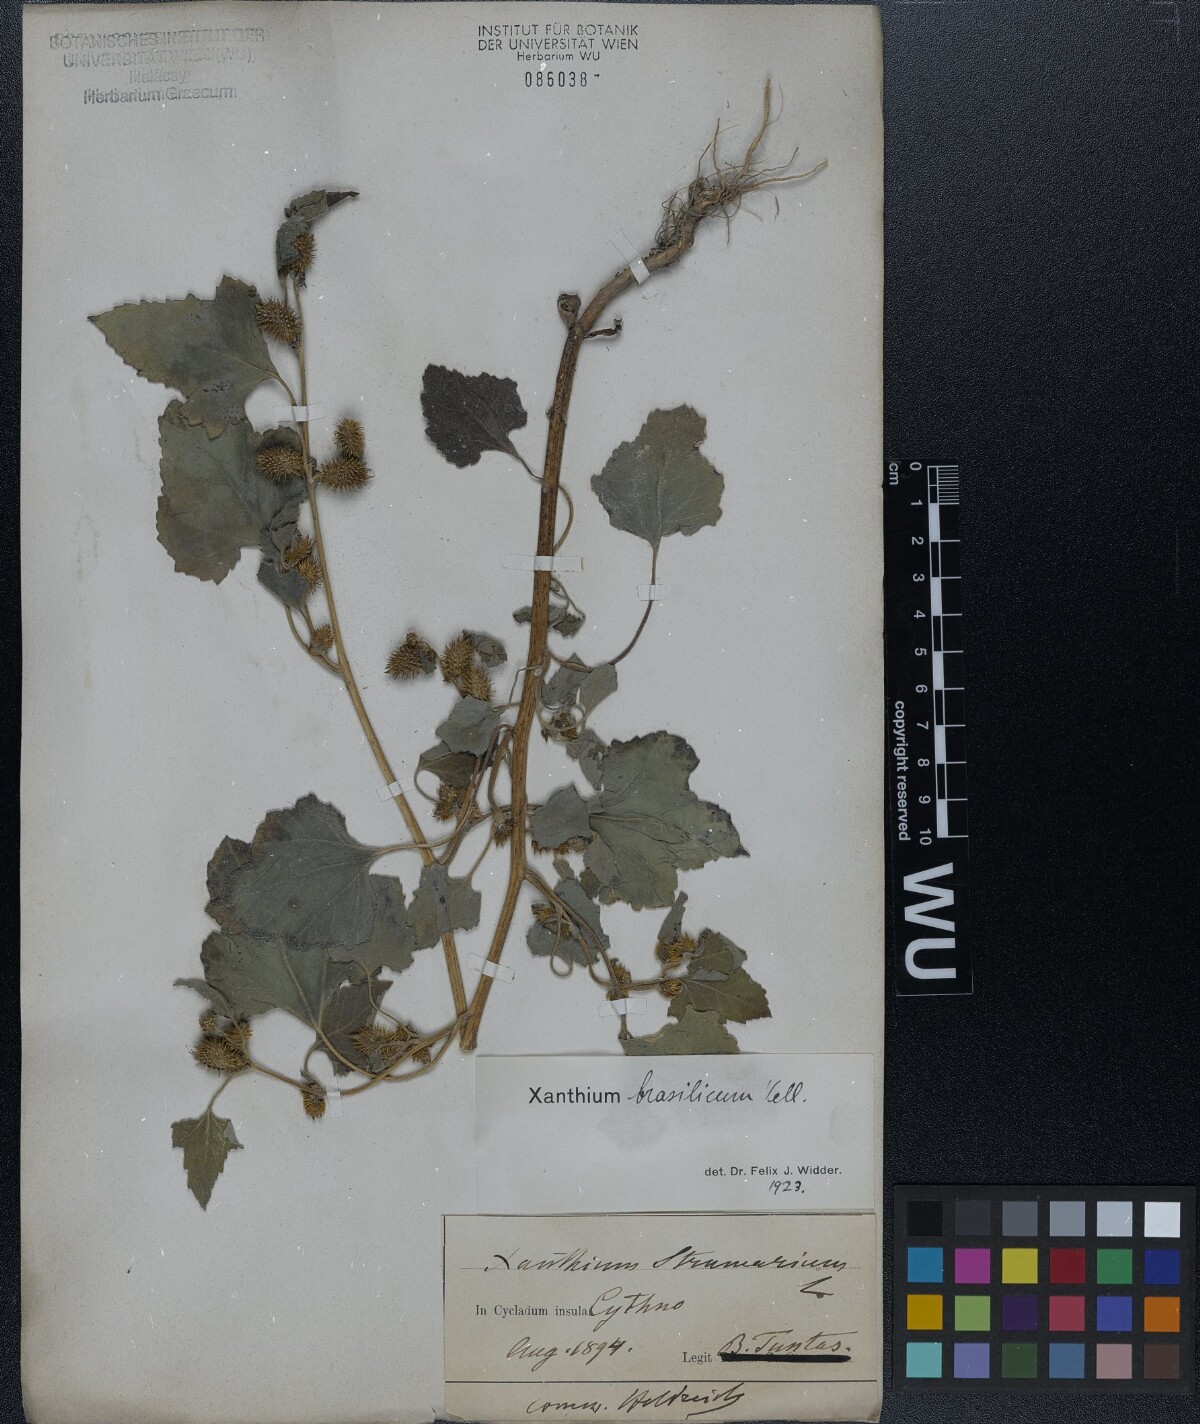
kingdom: Plantae
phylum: Tracheophyta
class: Magnoliopsida
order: Asterales
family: Asteraceae
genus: Xanthium
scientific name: Xanthium strumarium
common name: Rough cocklebur
